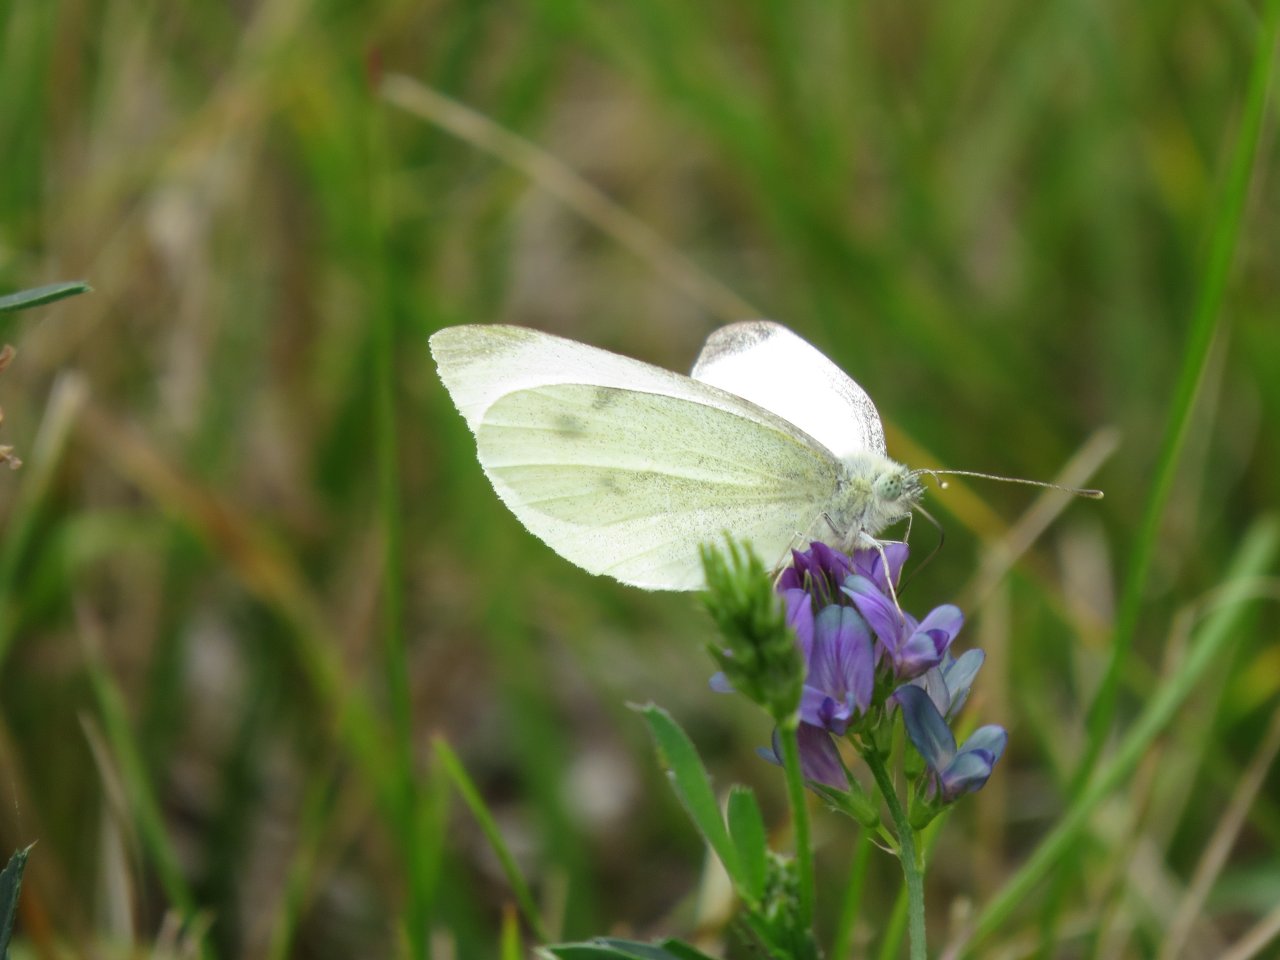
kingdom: Animalia
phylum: Arthropoda
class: Insecta
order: Lepidoptera
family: Pieridae
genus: Pieris
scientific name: Pieris rapae
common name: Cabbage White
